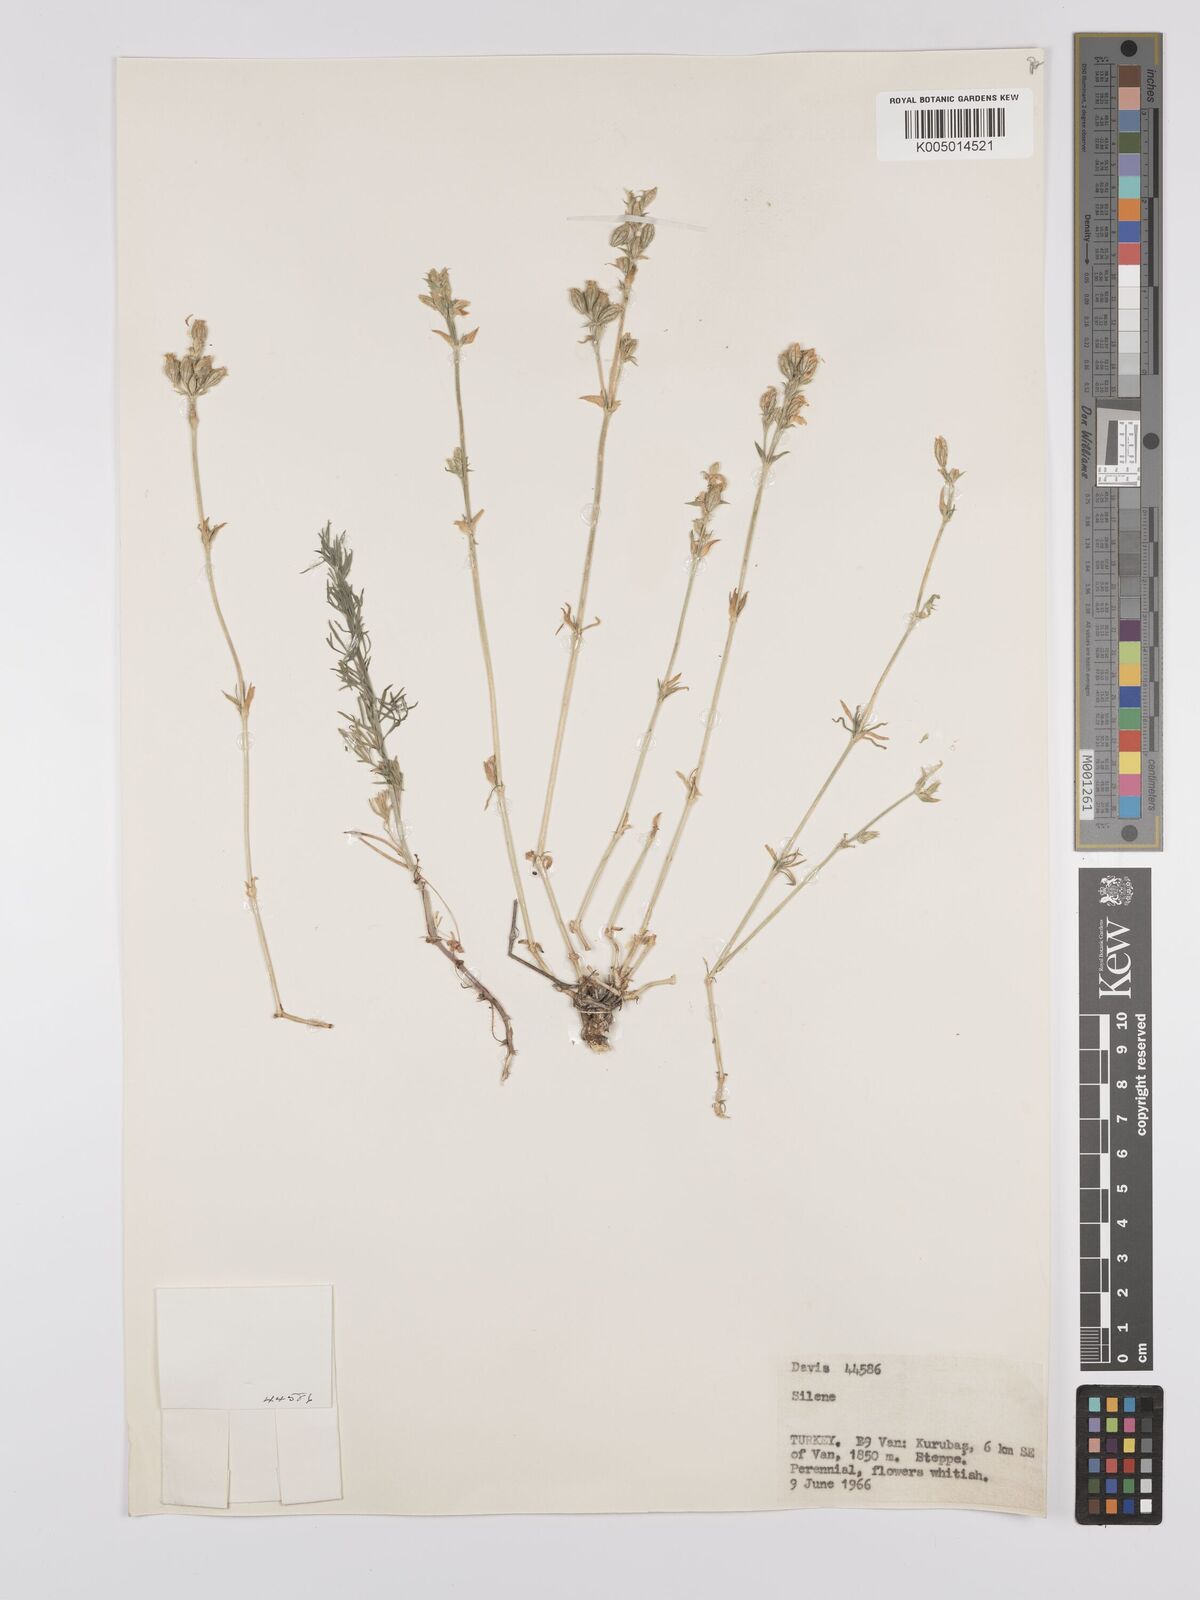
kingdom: Plantae
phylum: Tracheophyta
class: Magnoliopsida
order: Caryophyllales
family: Caryophyllaceae
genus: Silene
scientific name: Silene
